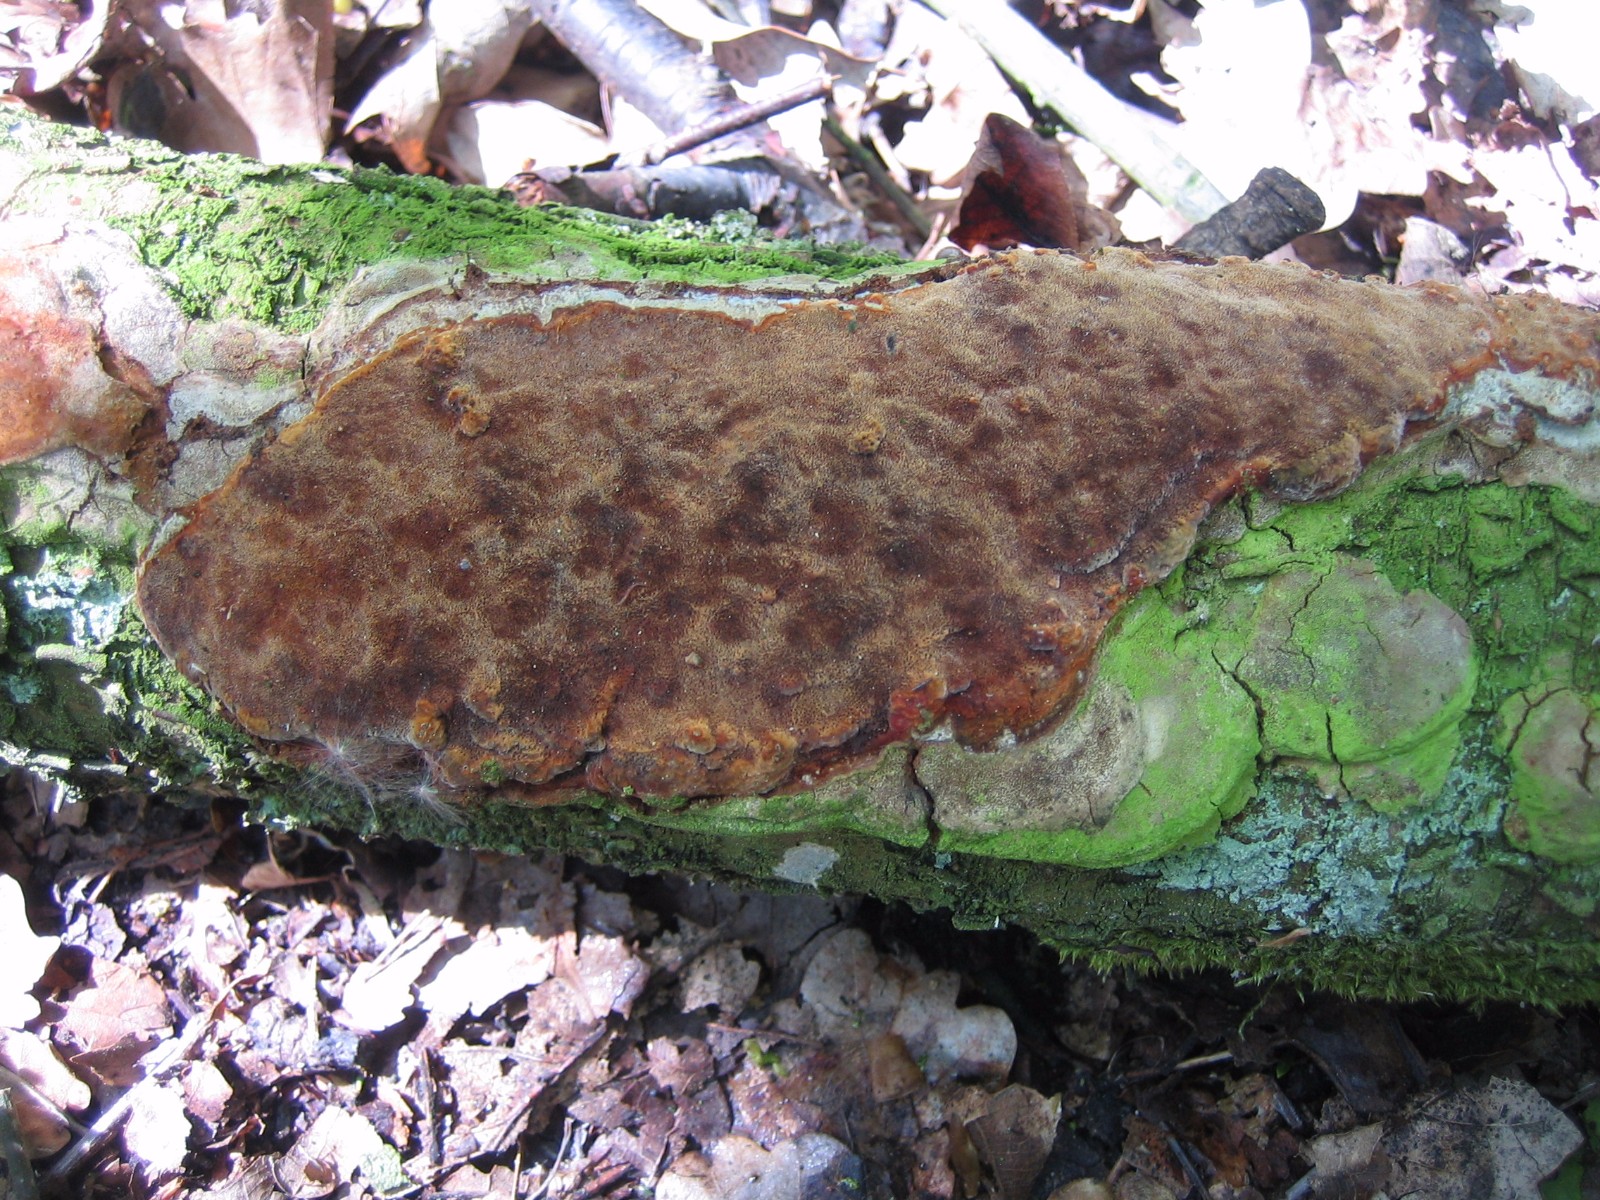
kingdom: Fungi
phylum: Basidiomycota
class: Agaricomycetes
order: Hymenochaetales
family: Hymenochaetaceae
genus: Phellinus
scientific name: Phellinus pomaceus
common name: blomme-ildporesvamp
